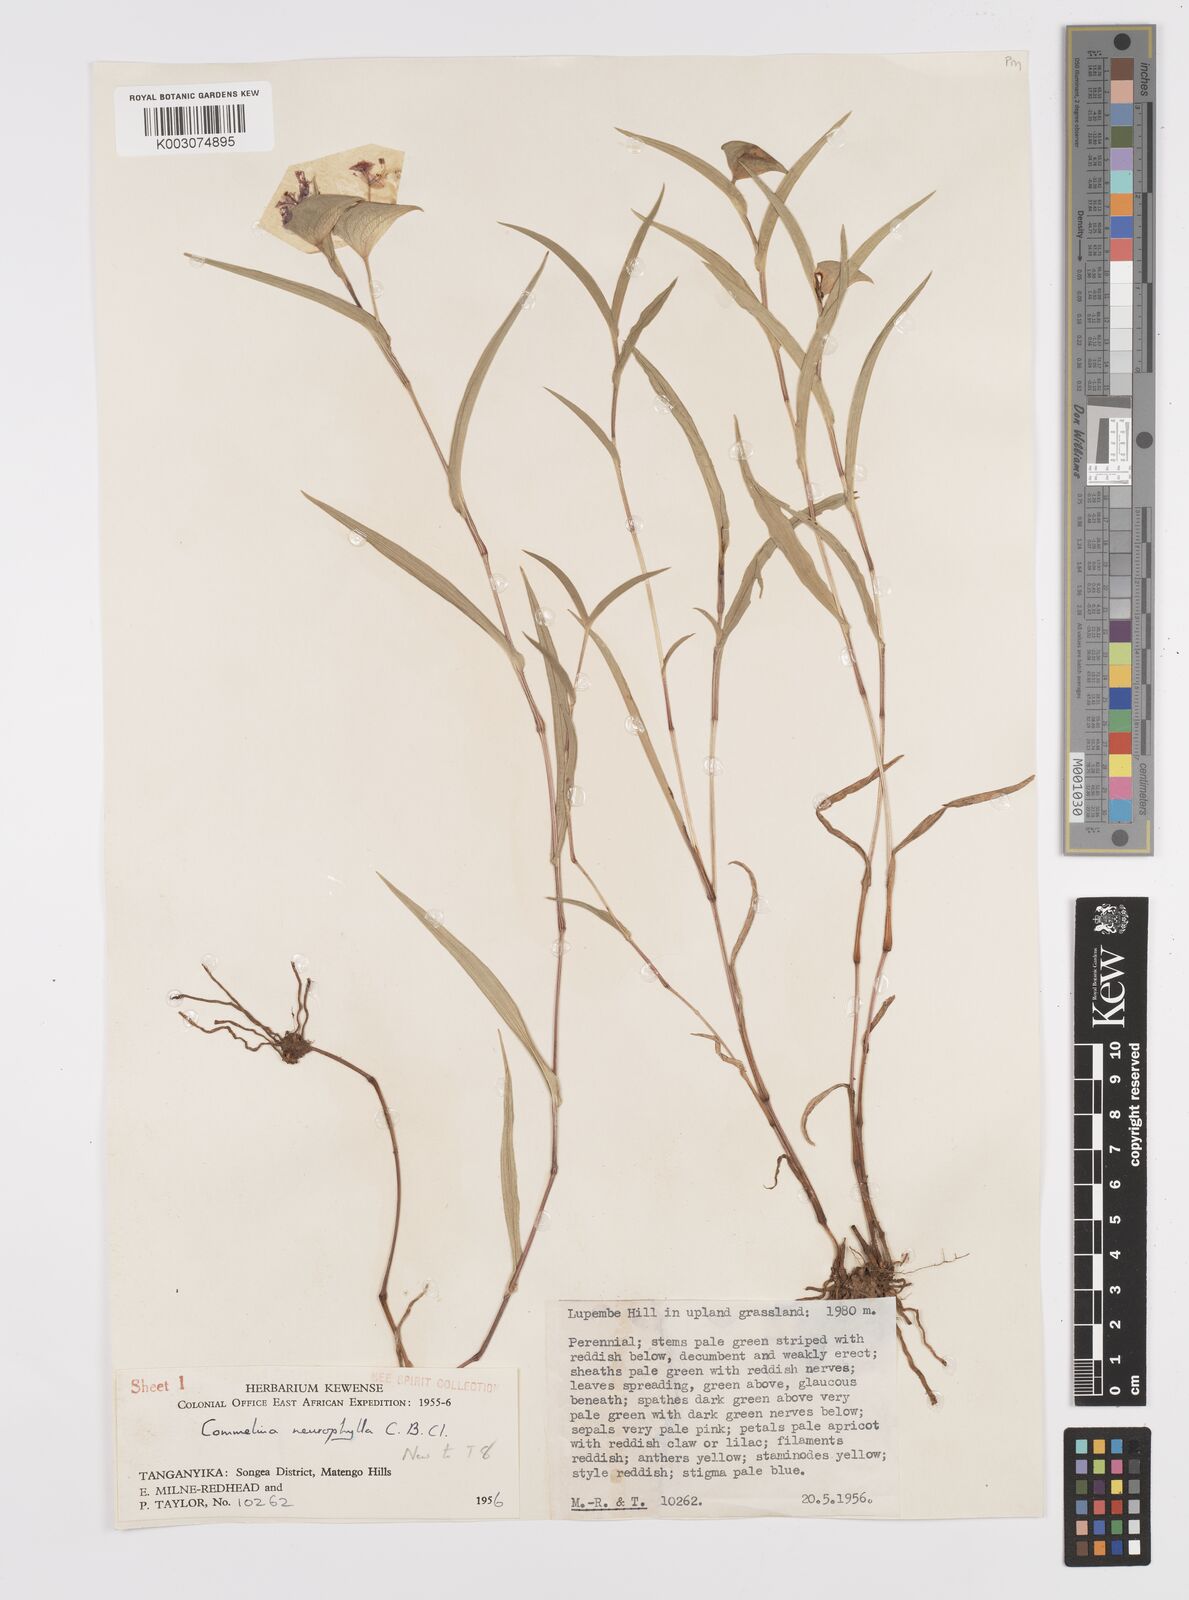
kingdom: Plantae
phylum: Tracheophyta
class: Liliopsida
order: Commelinales
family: Commelinaceae
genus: Commelina
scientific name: Commelina neurophylla
